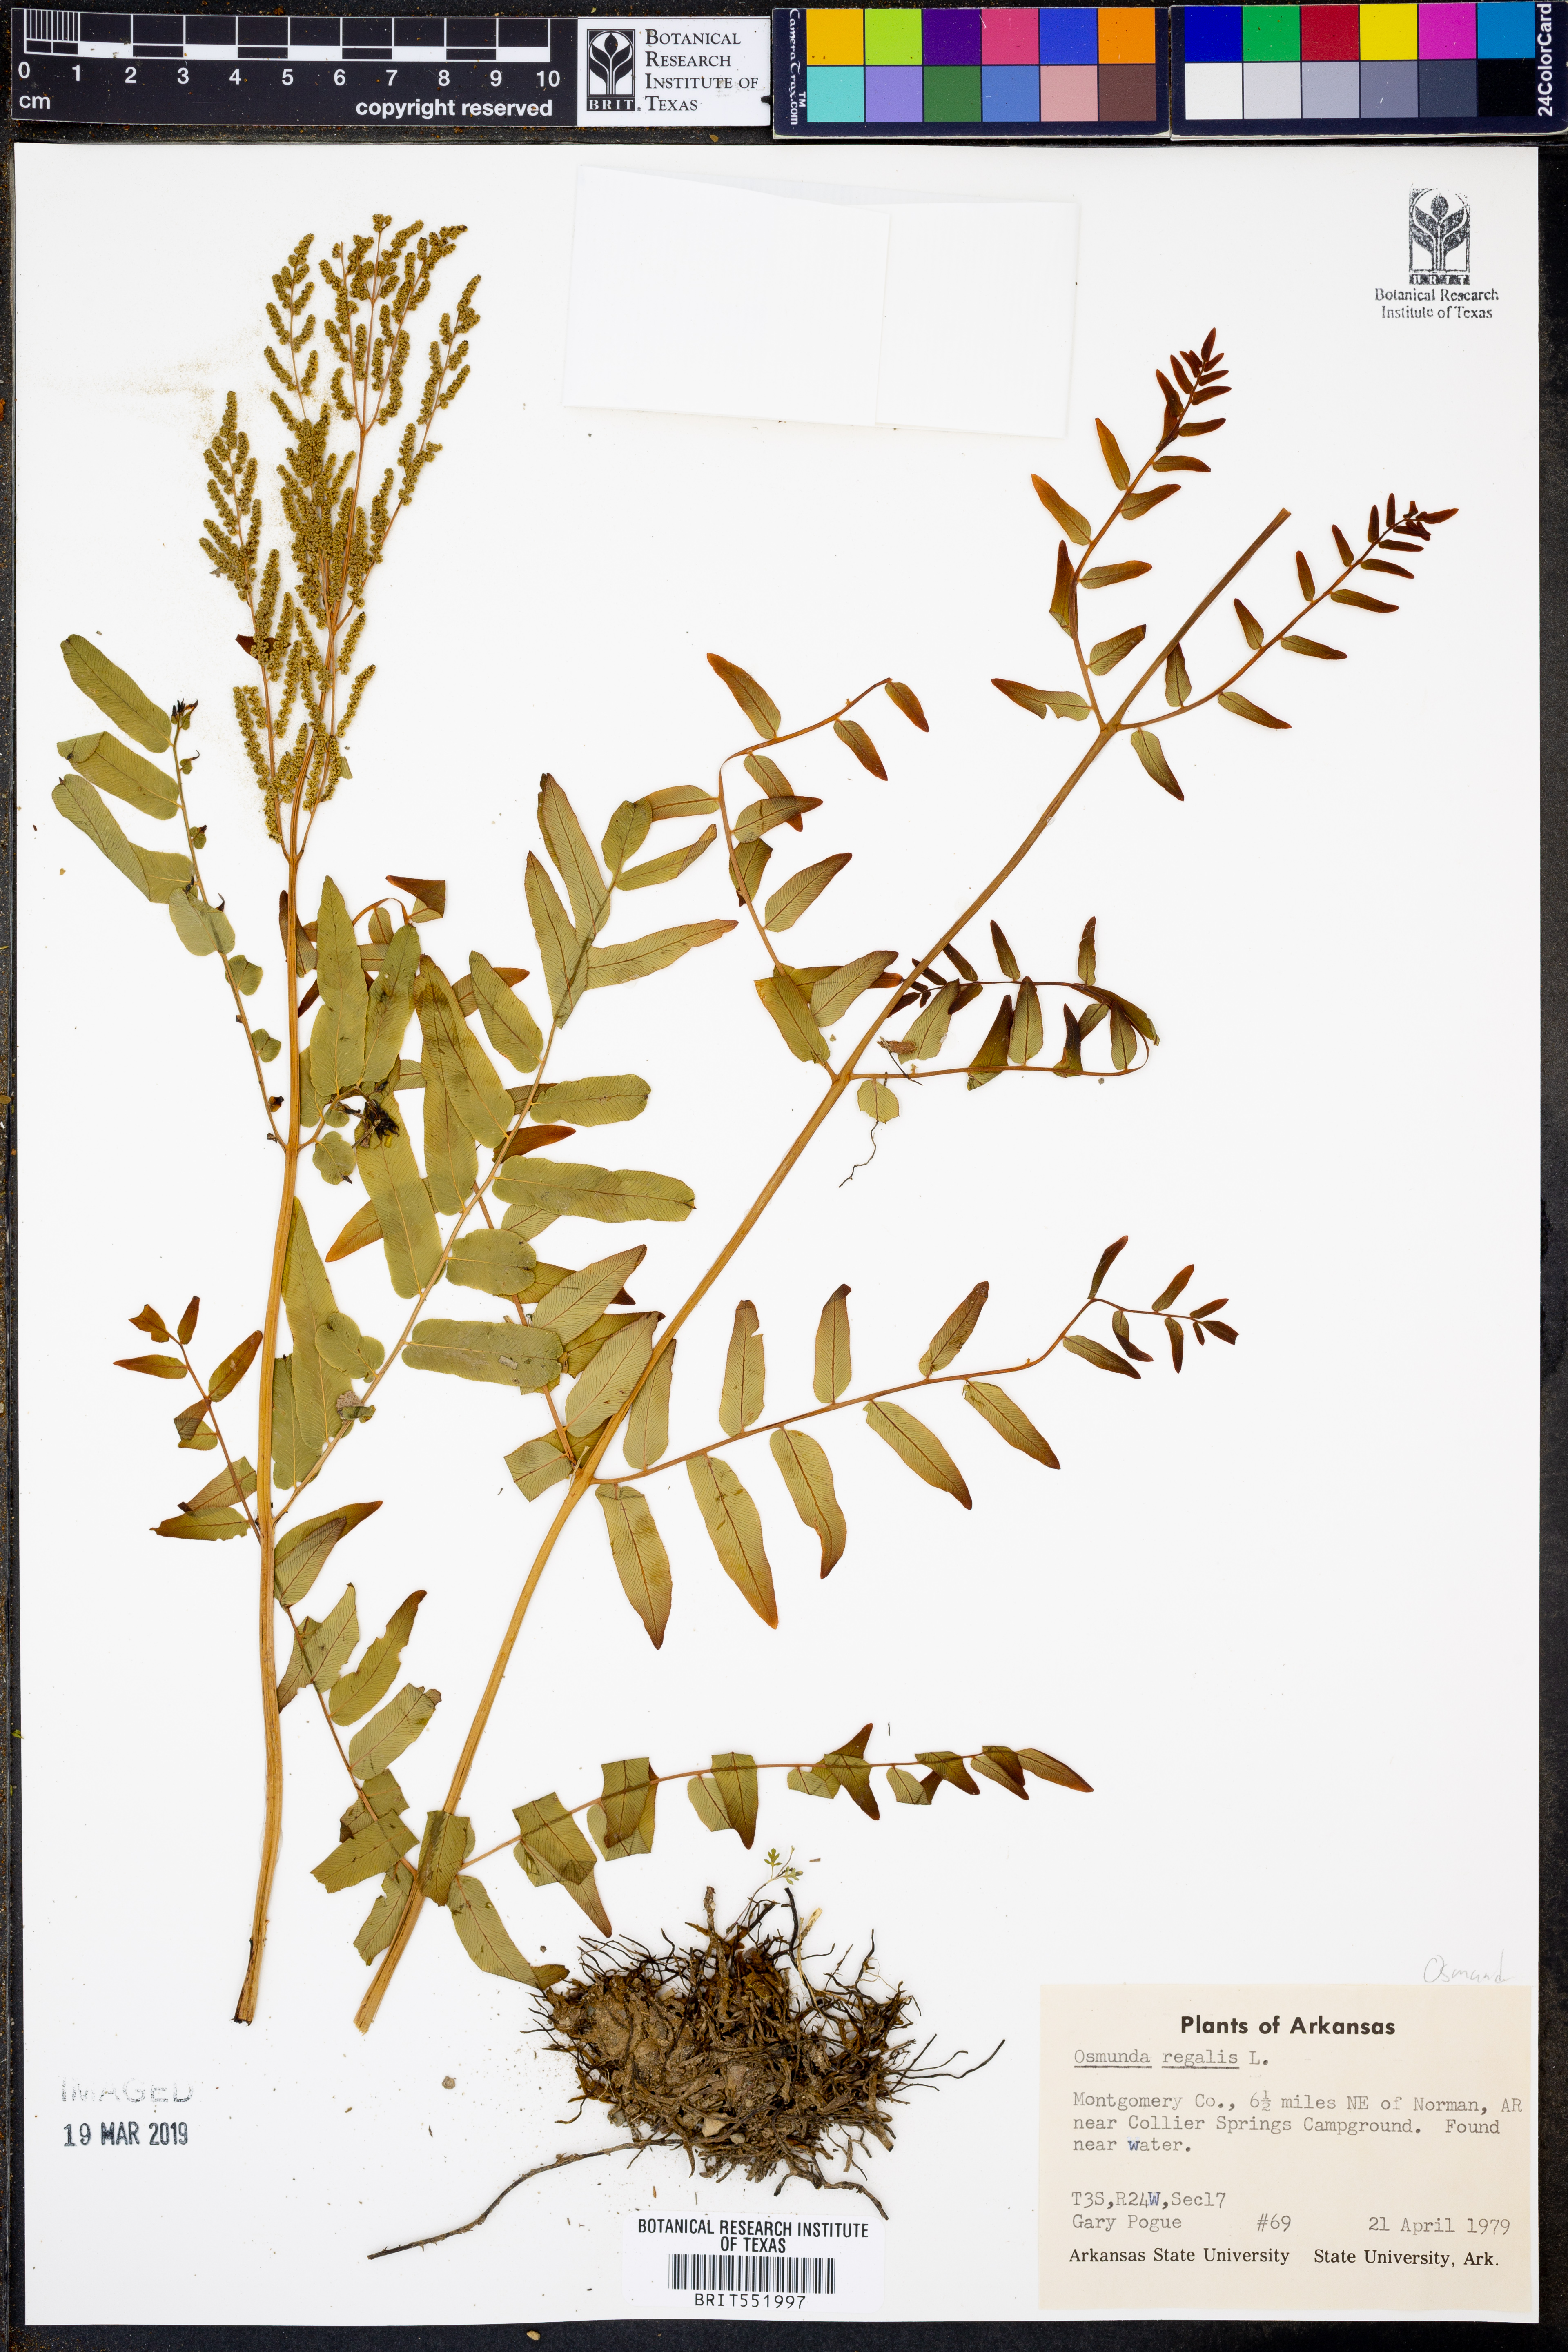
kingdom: Plantae
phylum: Tracheophyta
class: Polypodiopsida
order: Osmundales
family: Osmundaceae
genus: Osmunda
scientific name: Osmunda regalis
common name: Royal fern
